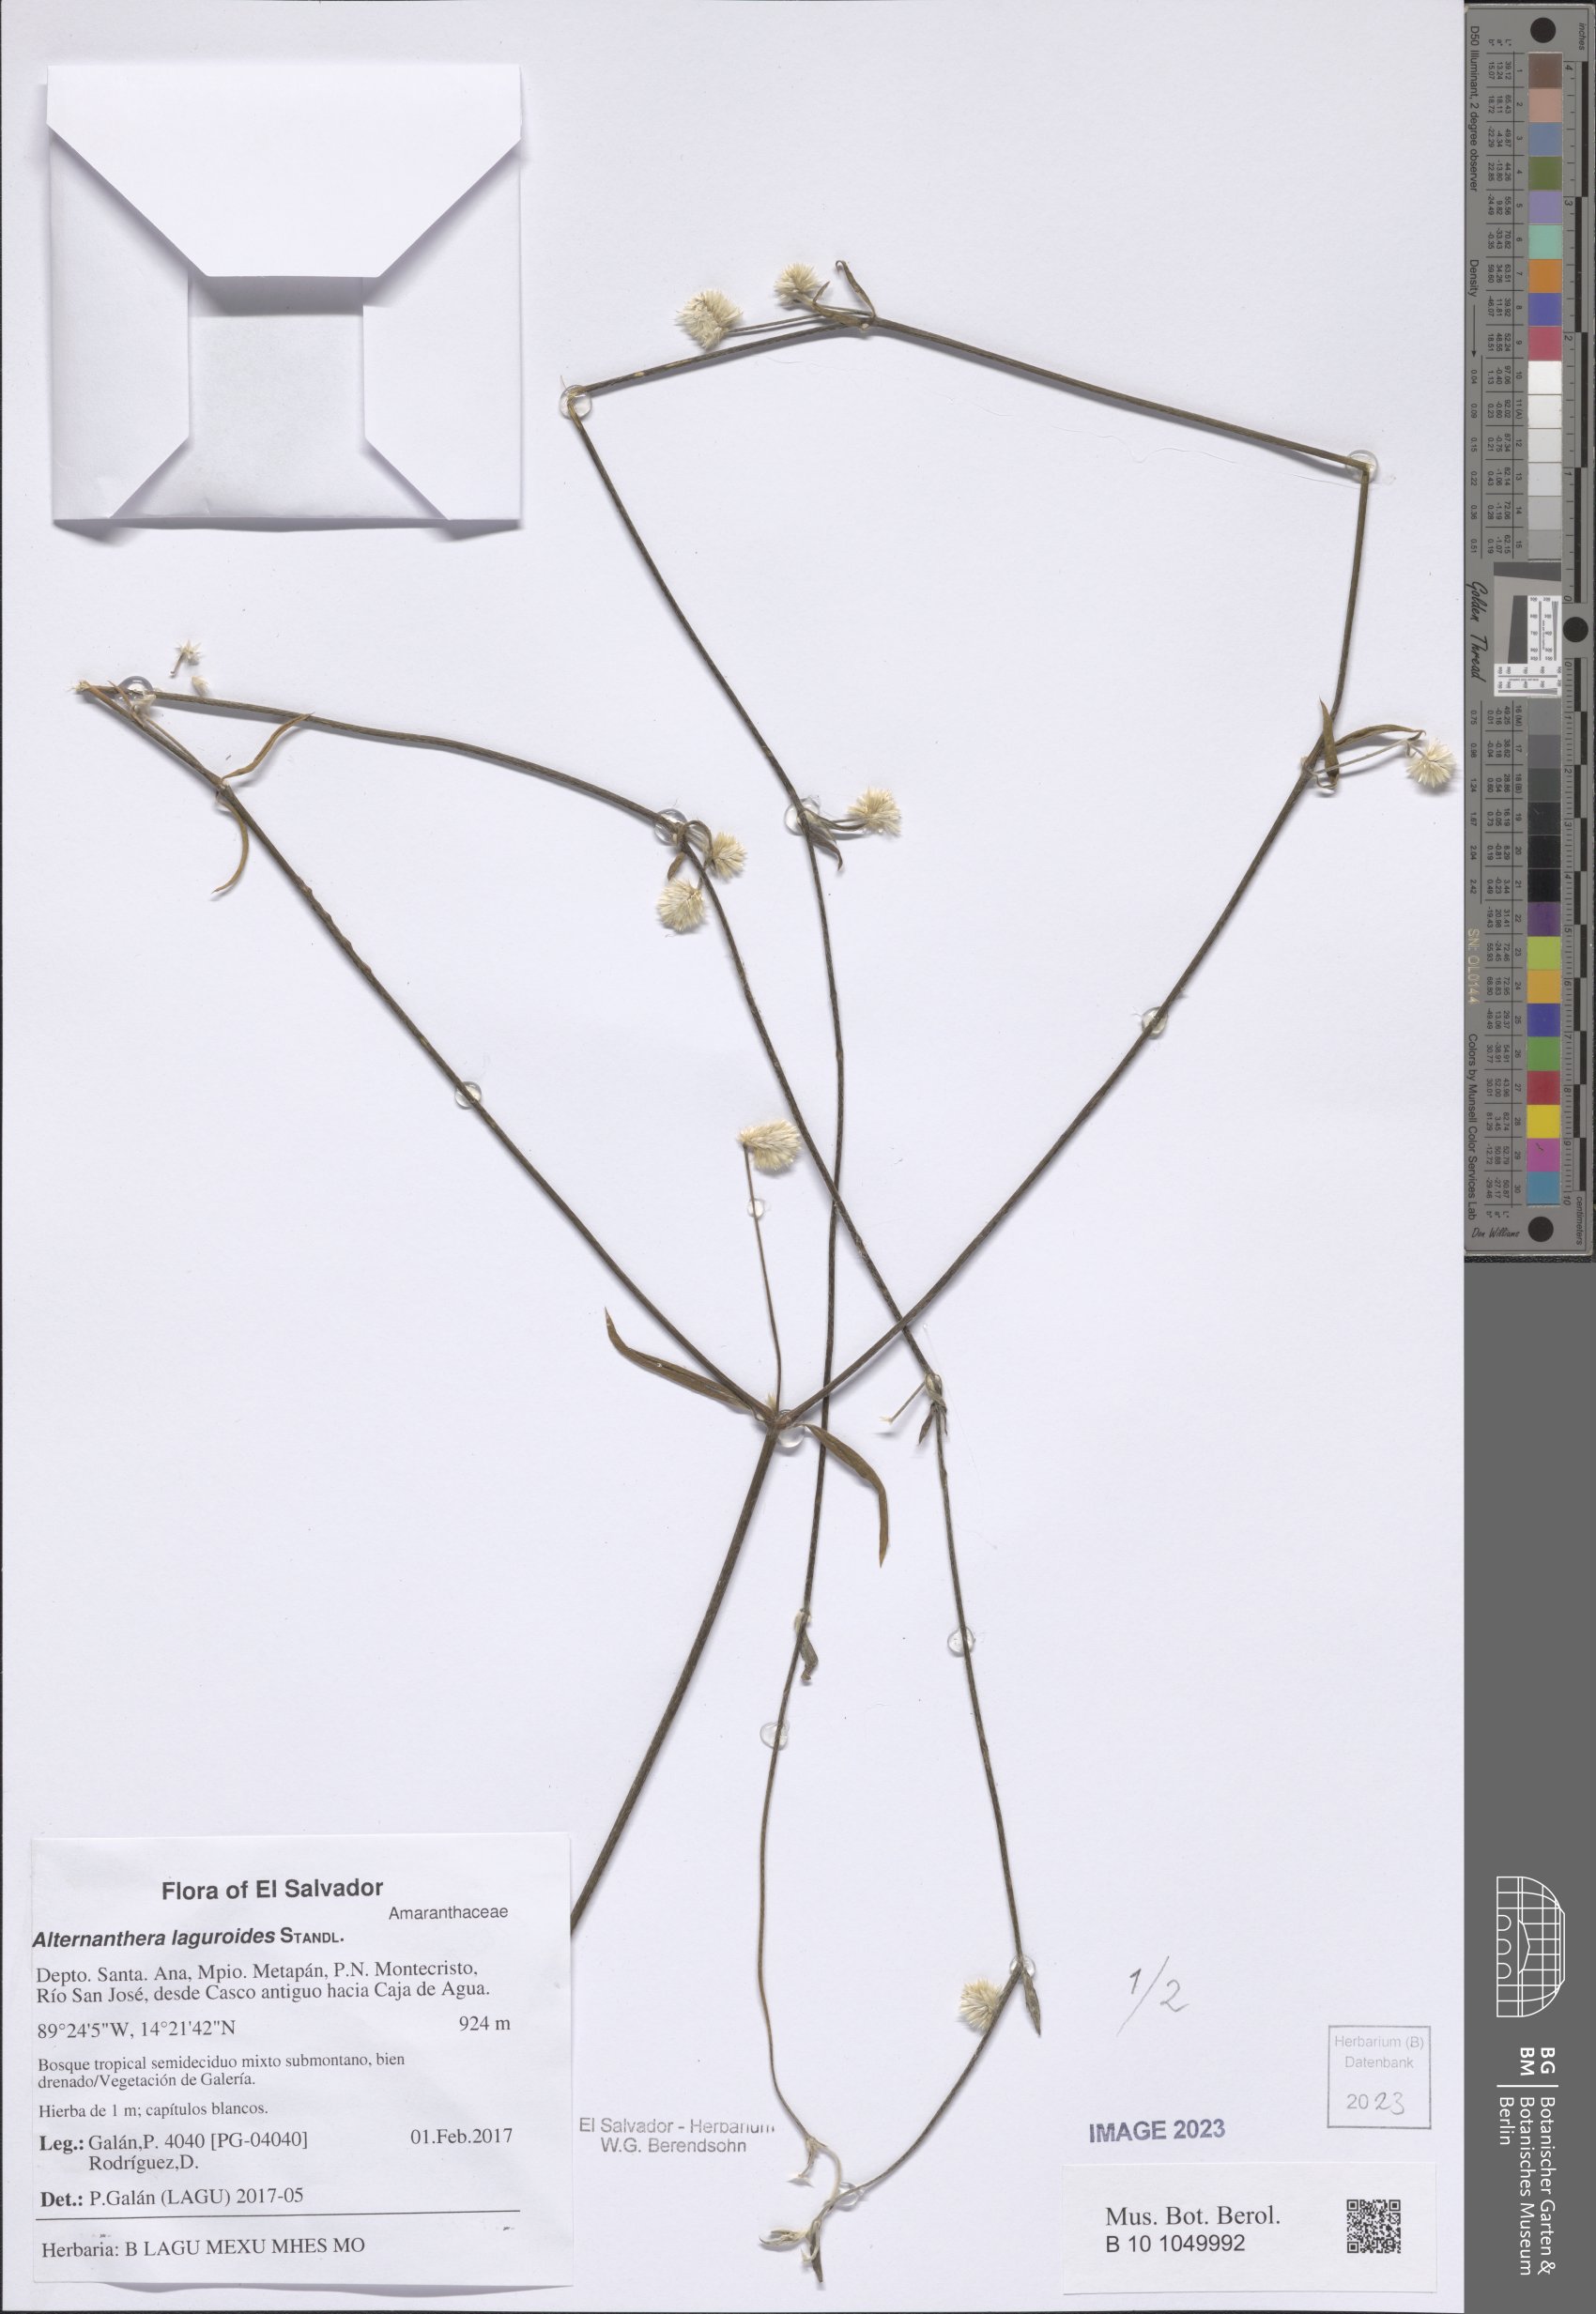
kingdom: Plantae
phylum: Tracheophyta
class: Magnoliopsida
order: Caryophyllales
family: Amaranthaceae
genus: Alternanthera
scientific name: Alternanthera laguroides
